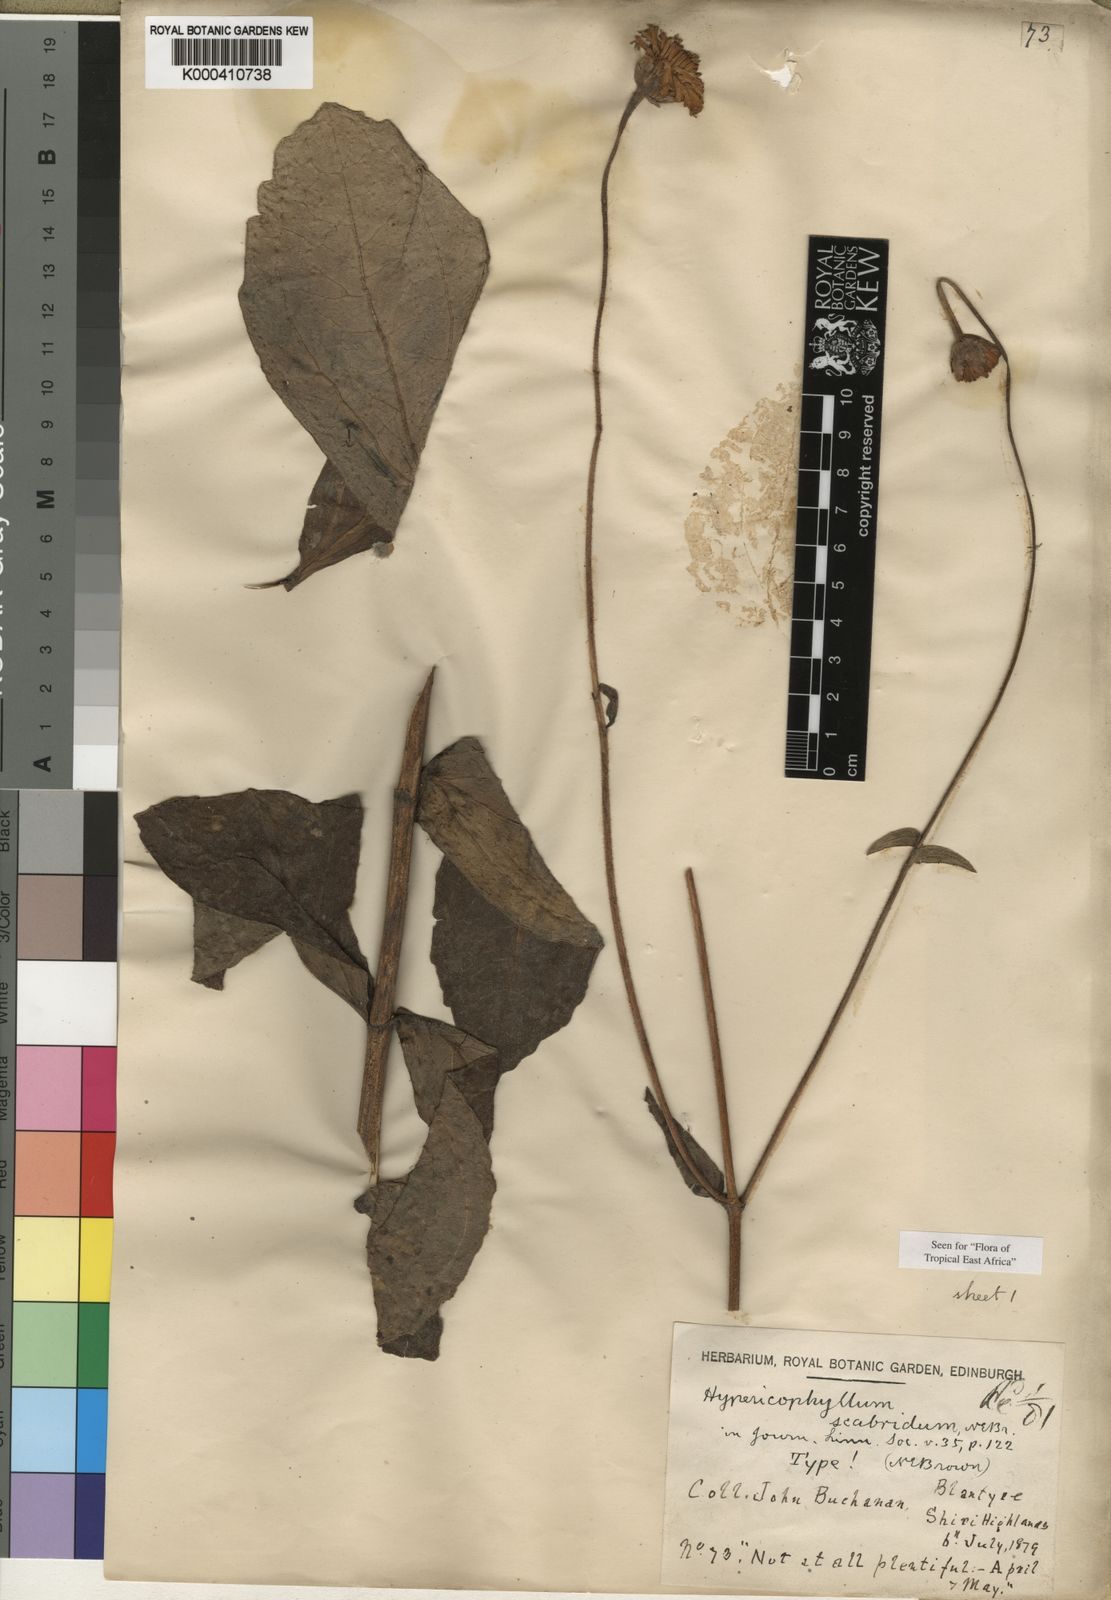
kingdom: Plantae
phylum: Tracheophyta
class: Magnoliopsida
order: Asterales
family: Asteraceae
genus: Hypericophyllum
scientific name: Hypericophyllum angolense
